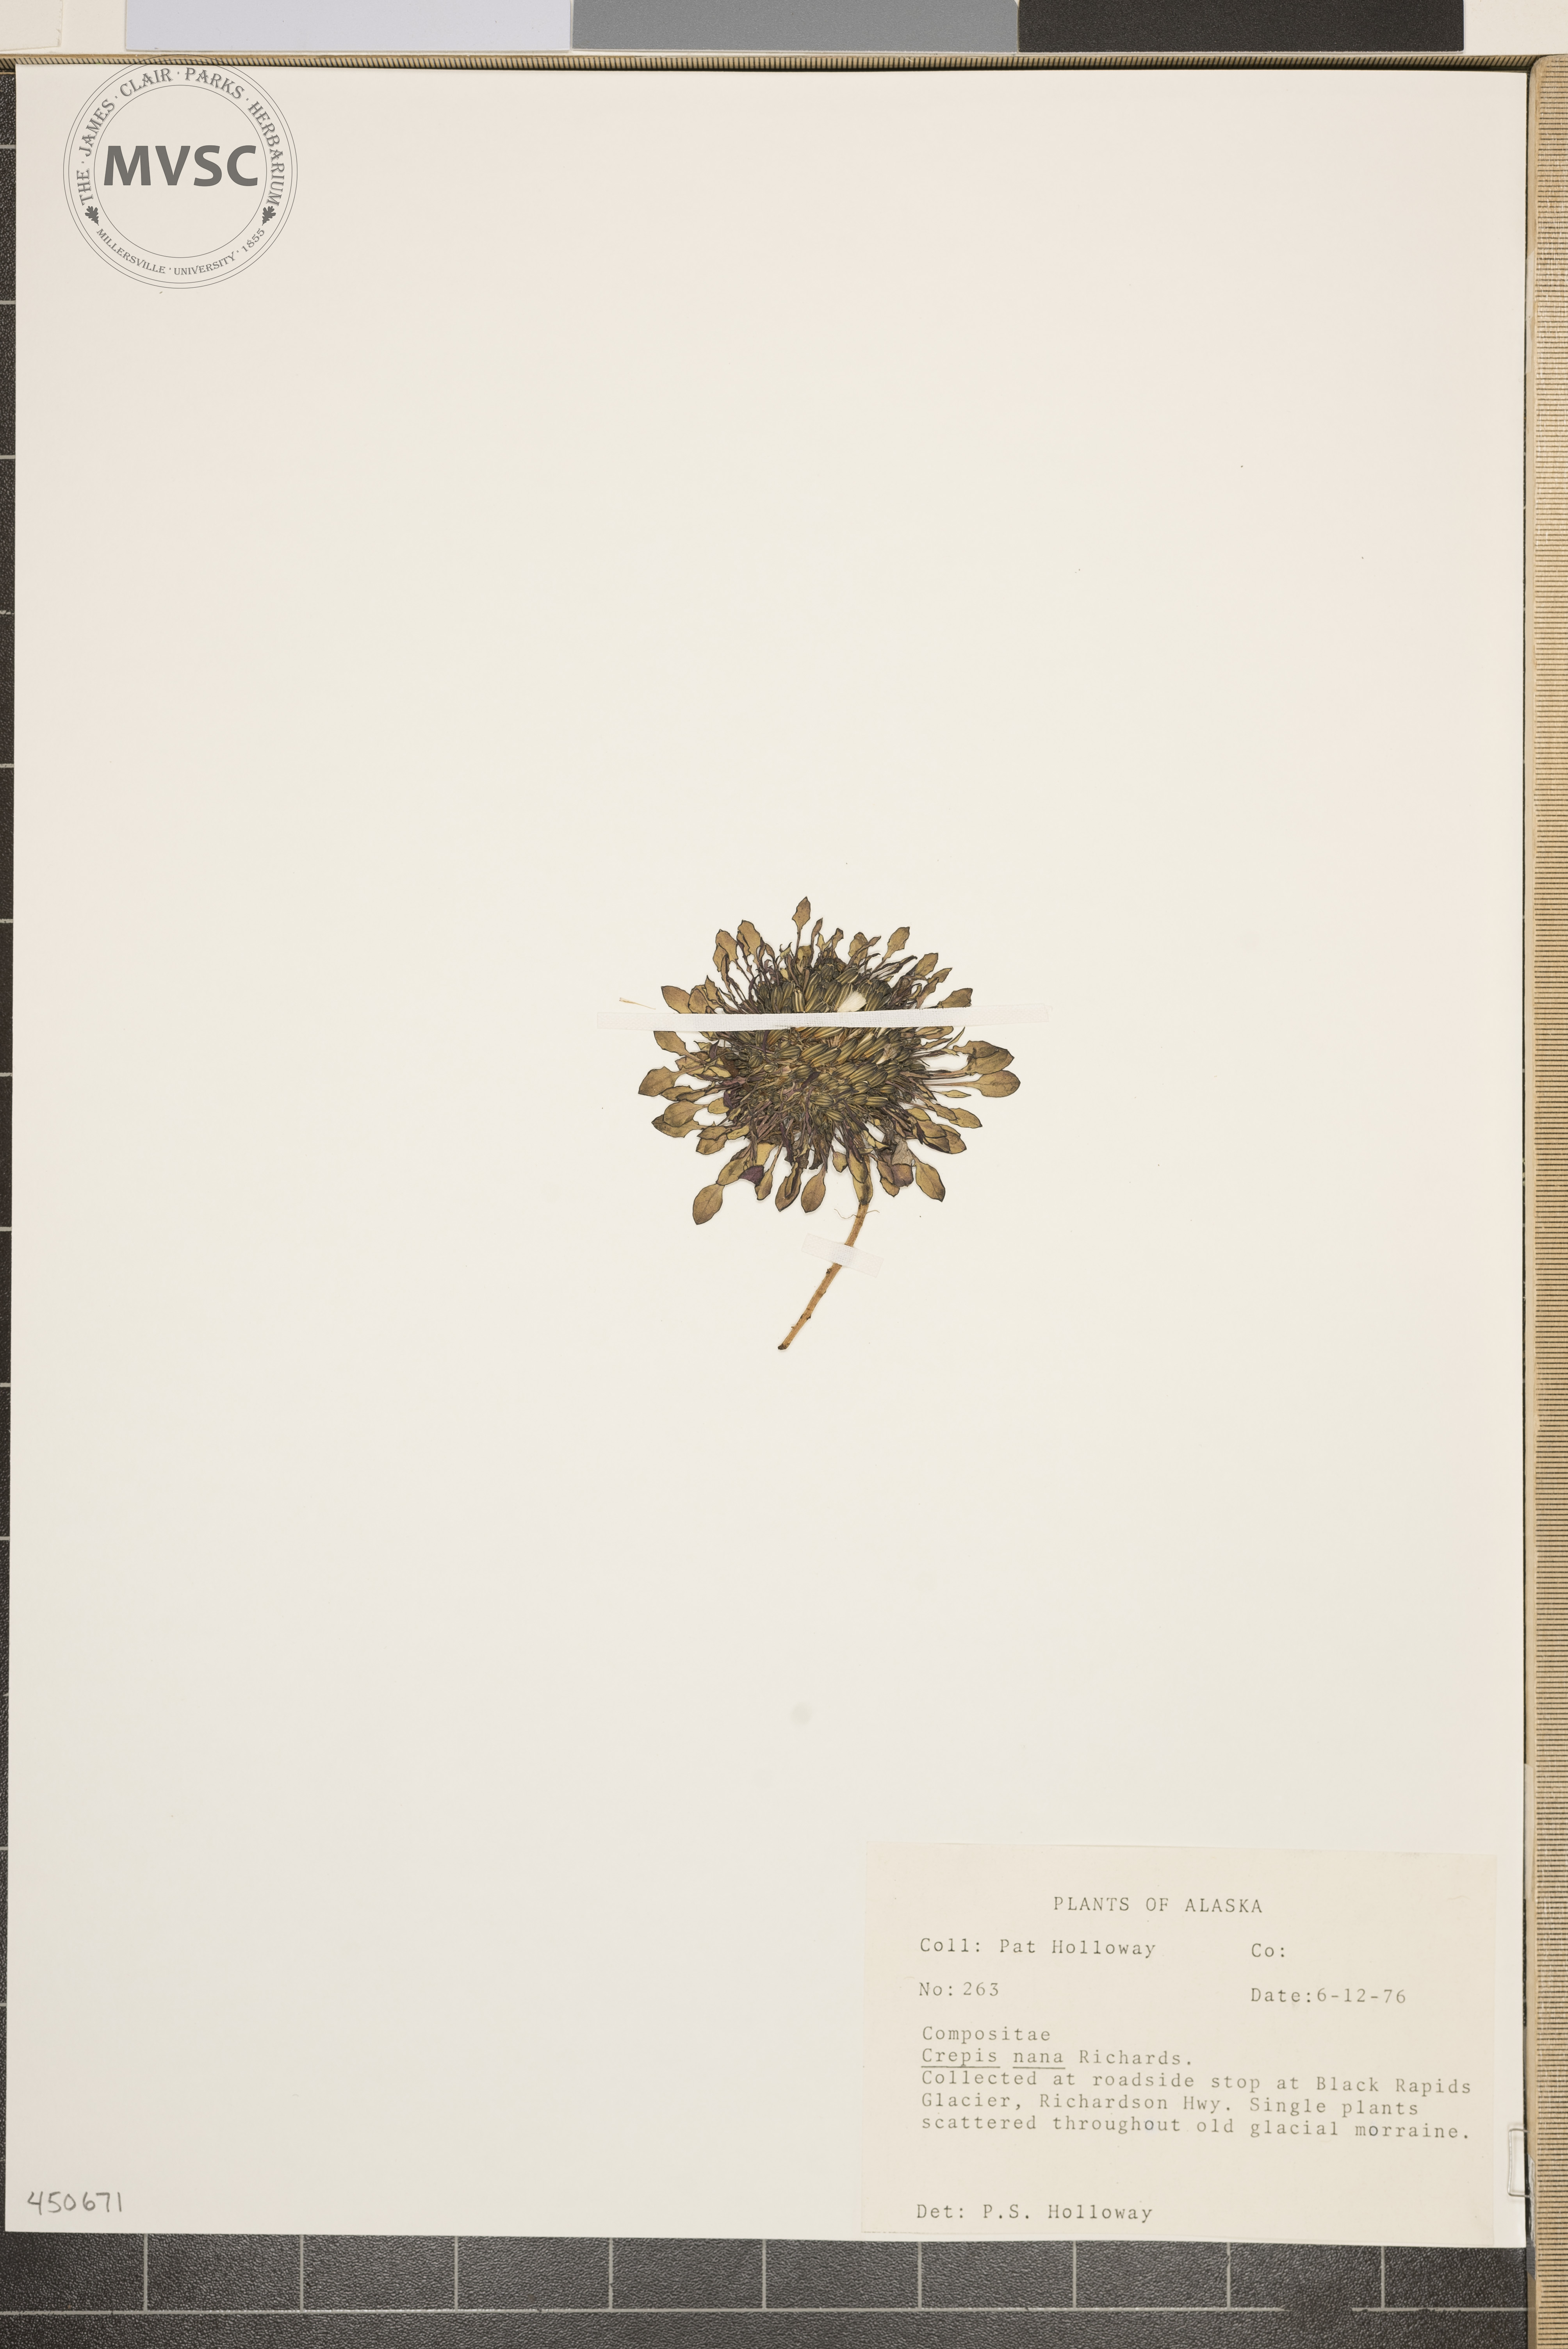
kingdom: Plantae
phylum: Tracheophyta
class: Magnoliopsida
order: Asterales
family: Asteraceae
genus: Askellia
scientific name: Askellia pygmaea
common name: Dwarf alpine hawksbeard
